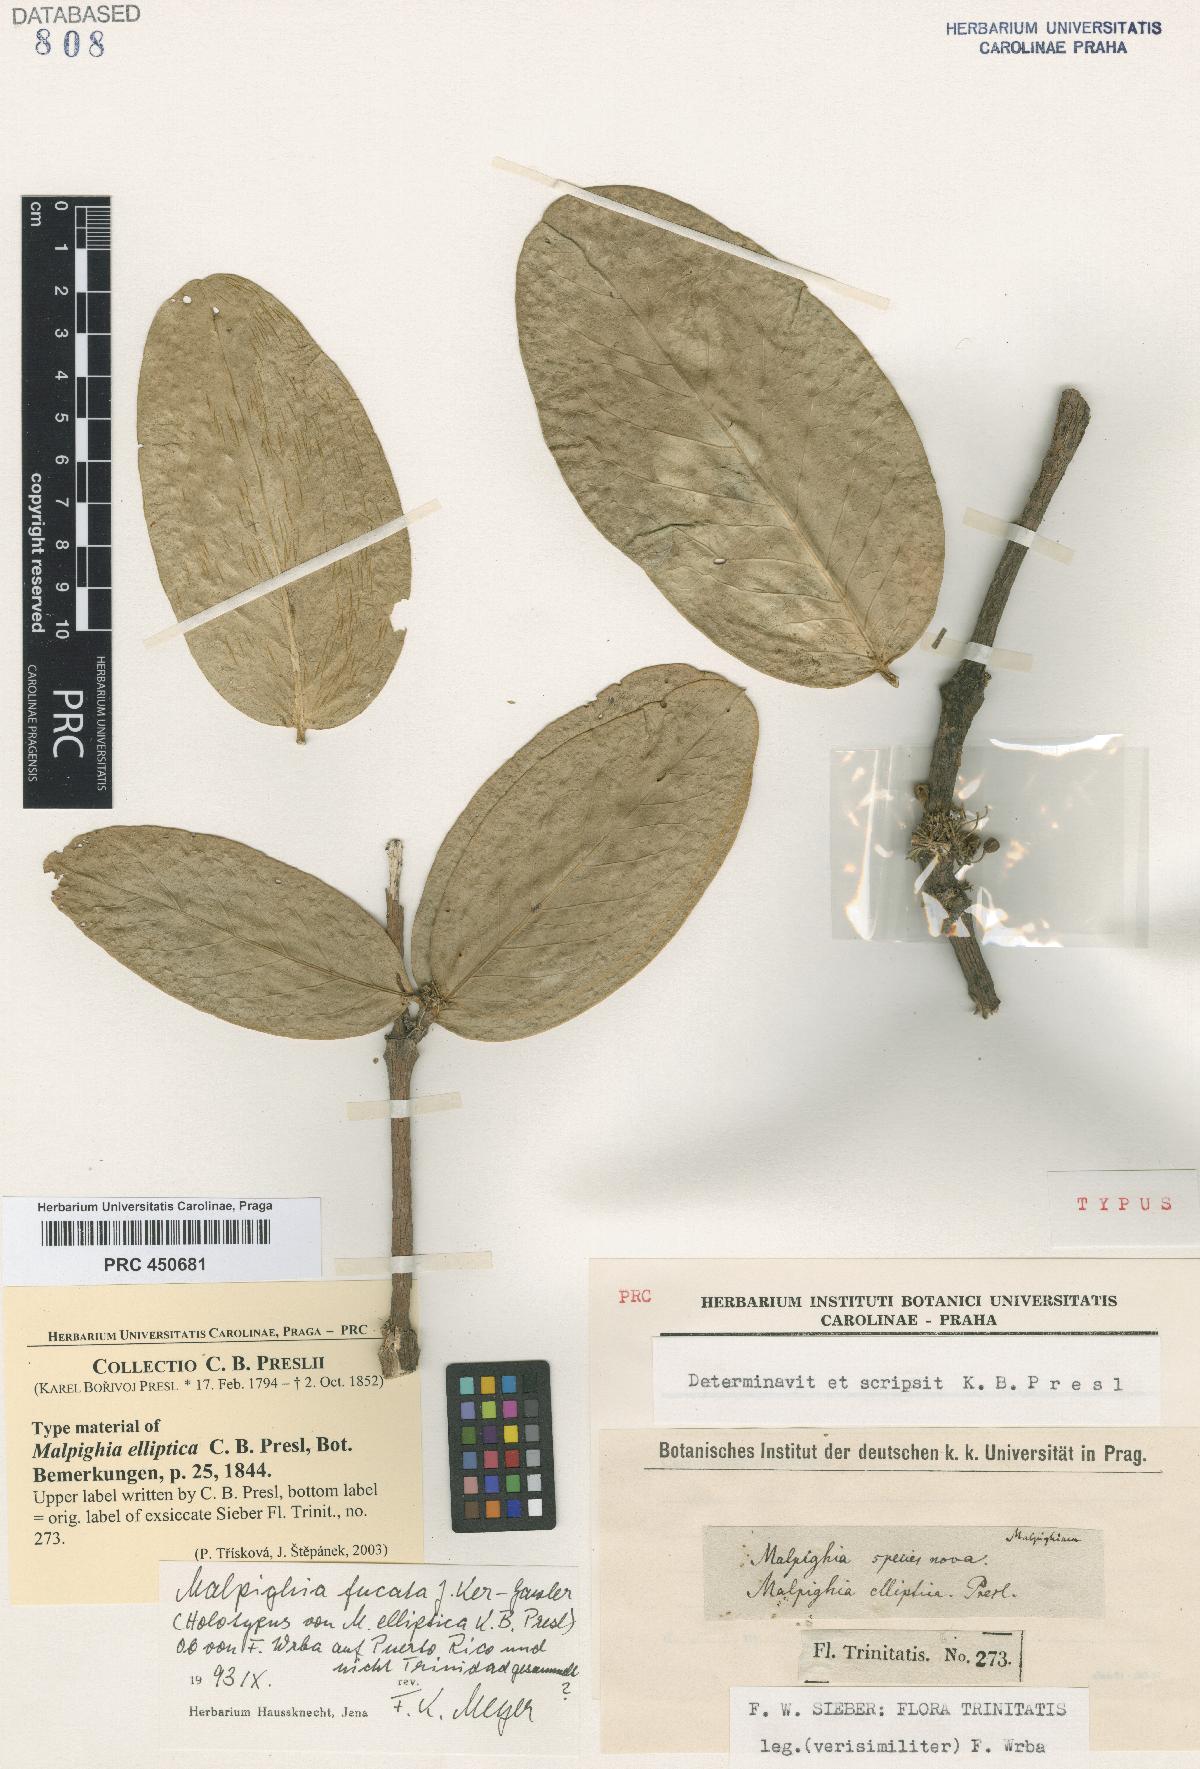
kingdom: Plantae
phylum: Tracheophyta
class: Magnoliopsida
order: Malpighiales
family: Malpighiaceae
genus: Malpighia
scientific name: Malpighia fucata
